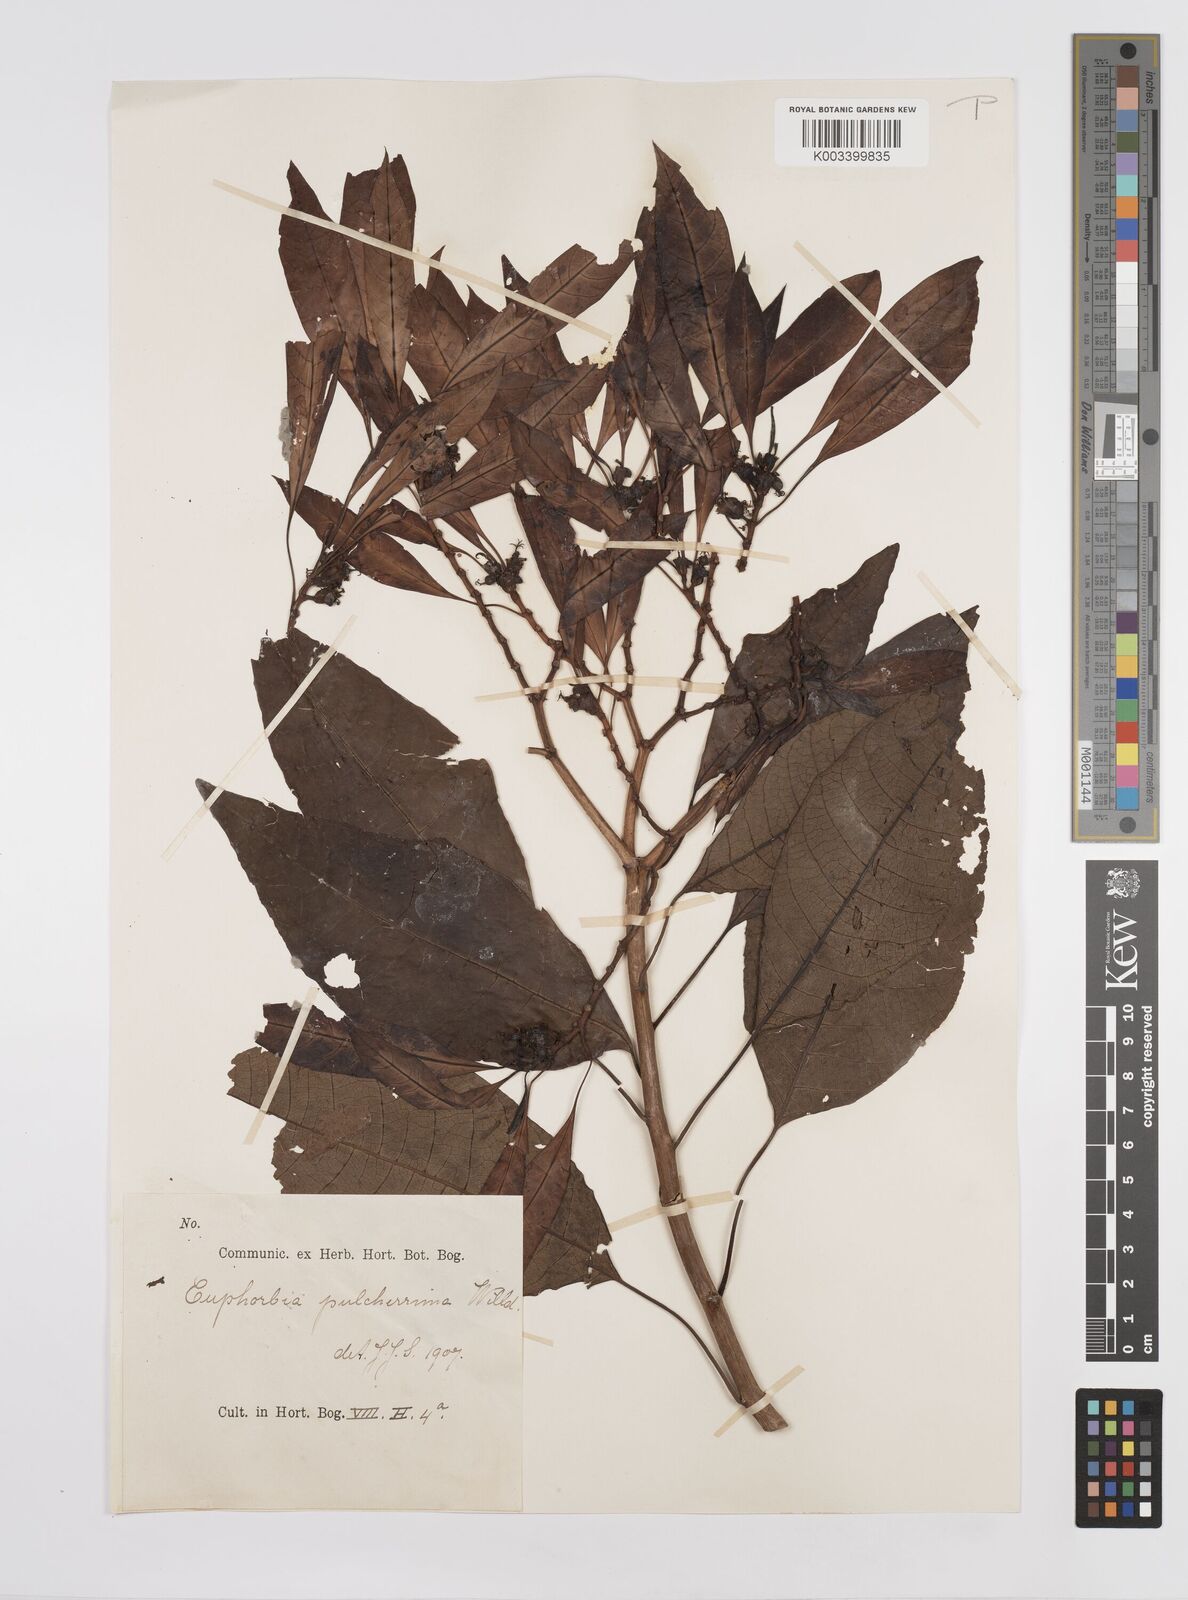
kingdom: Plantae
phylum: Tracheophyta
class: Magnoliopsida
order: Malpighiales
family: Euphorbiaceae
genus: Euphorbia
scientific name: Euphorbia pulcherrima
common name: Christmas-flower
